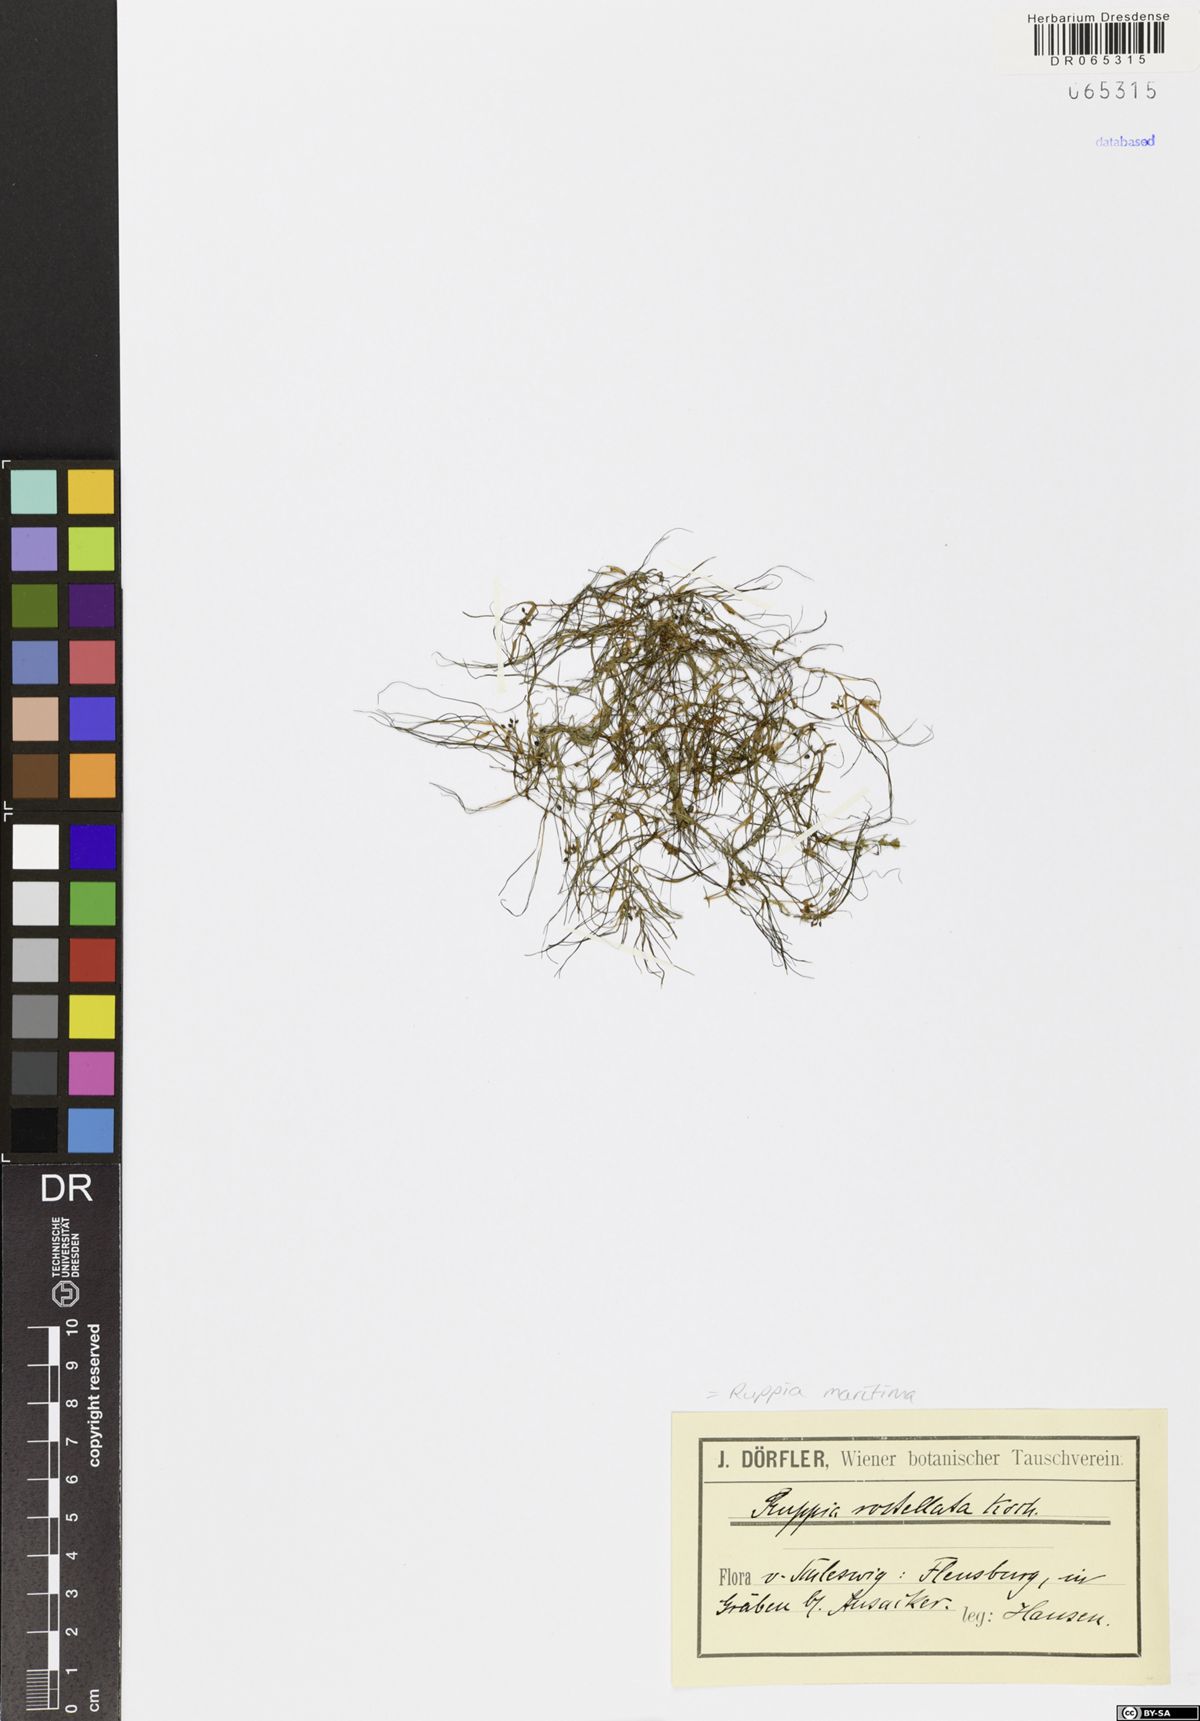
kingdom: Plantae
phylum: Tracheophyta
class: Liliopsida
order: Alismatales
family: Ruppiaceae
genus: Ruppia
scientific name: Ruppia maritima
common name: Beaked tasselweed
